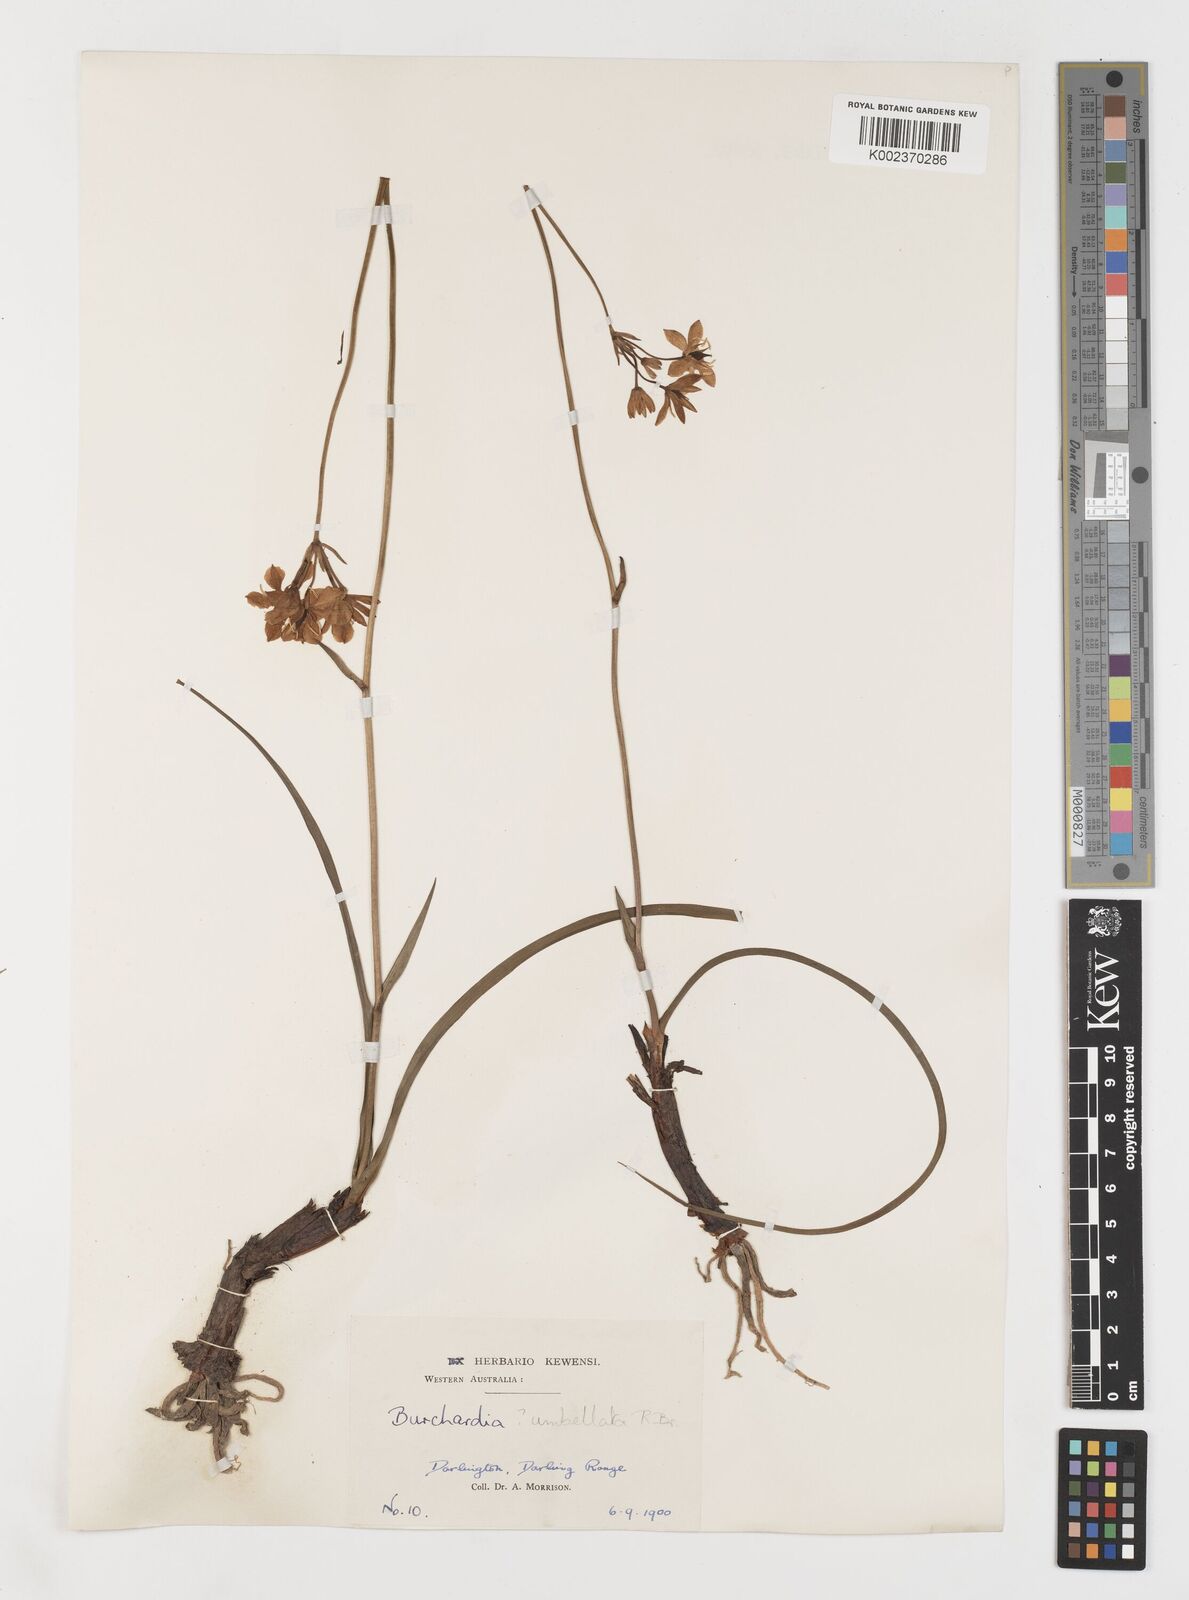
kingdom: Plantae
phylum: Tracheophyta
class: Liliopsida
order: Liliales
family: Colchicaceae
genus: Burchardia
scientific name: Burchardia umbellata
